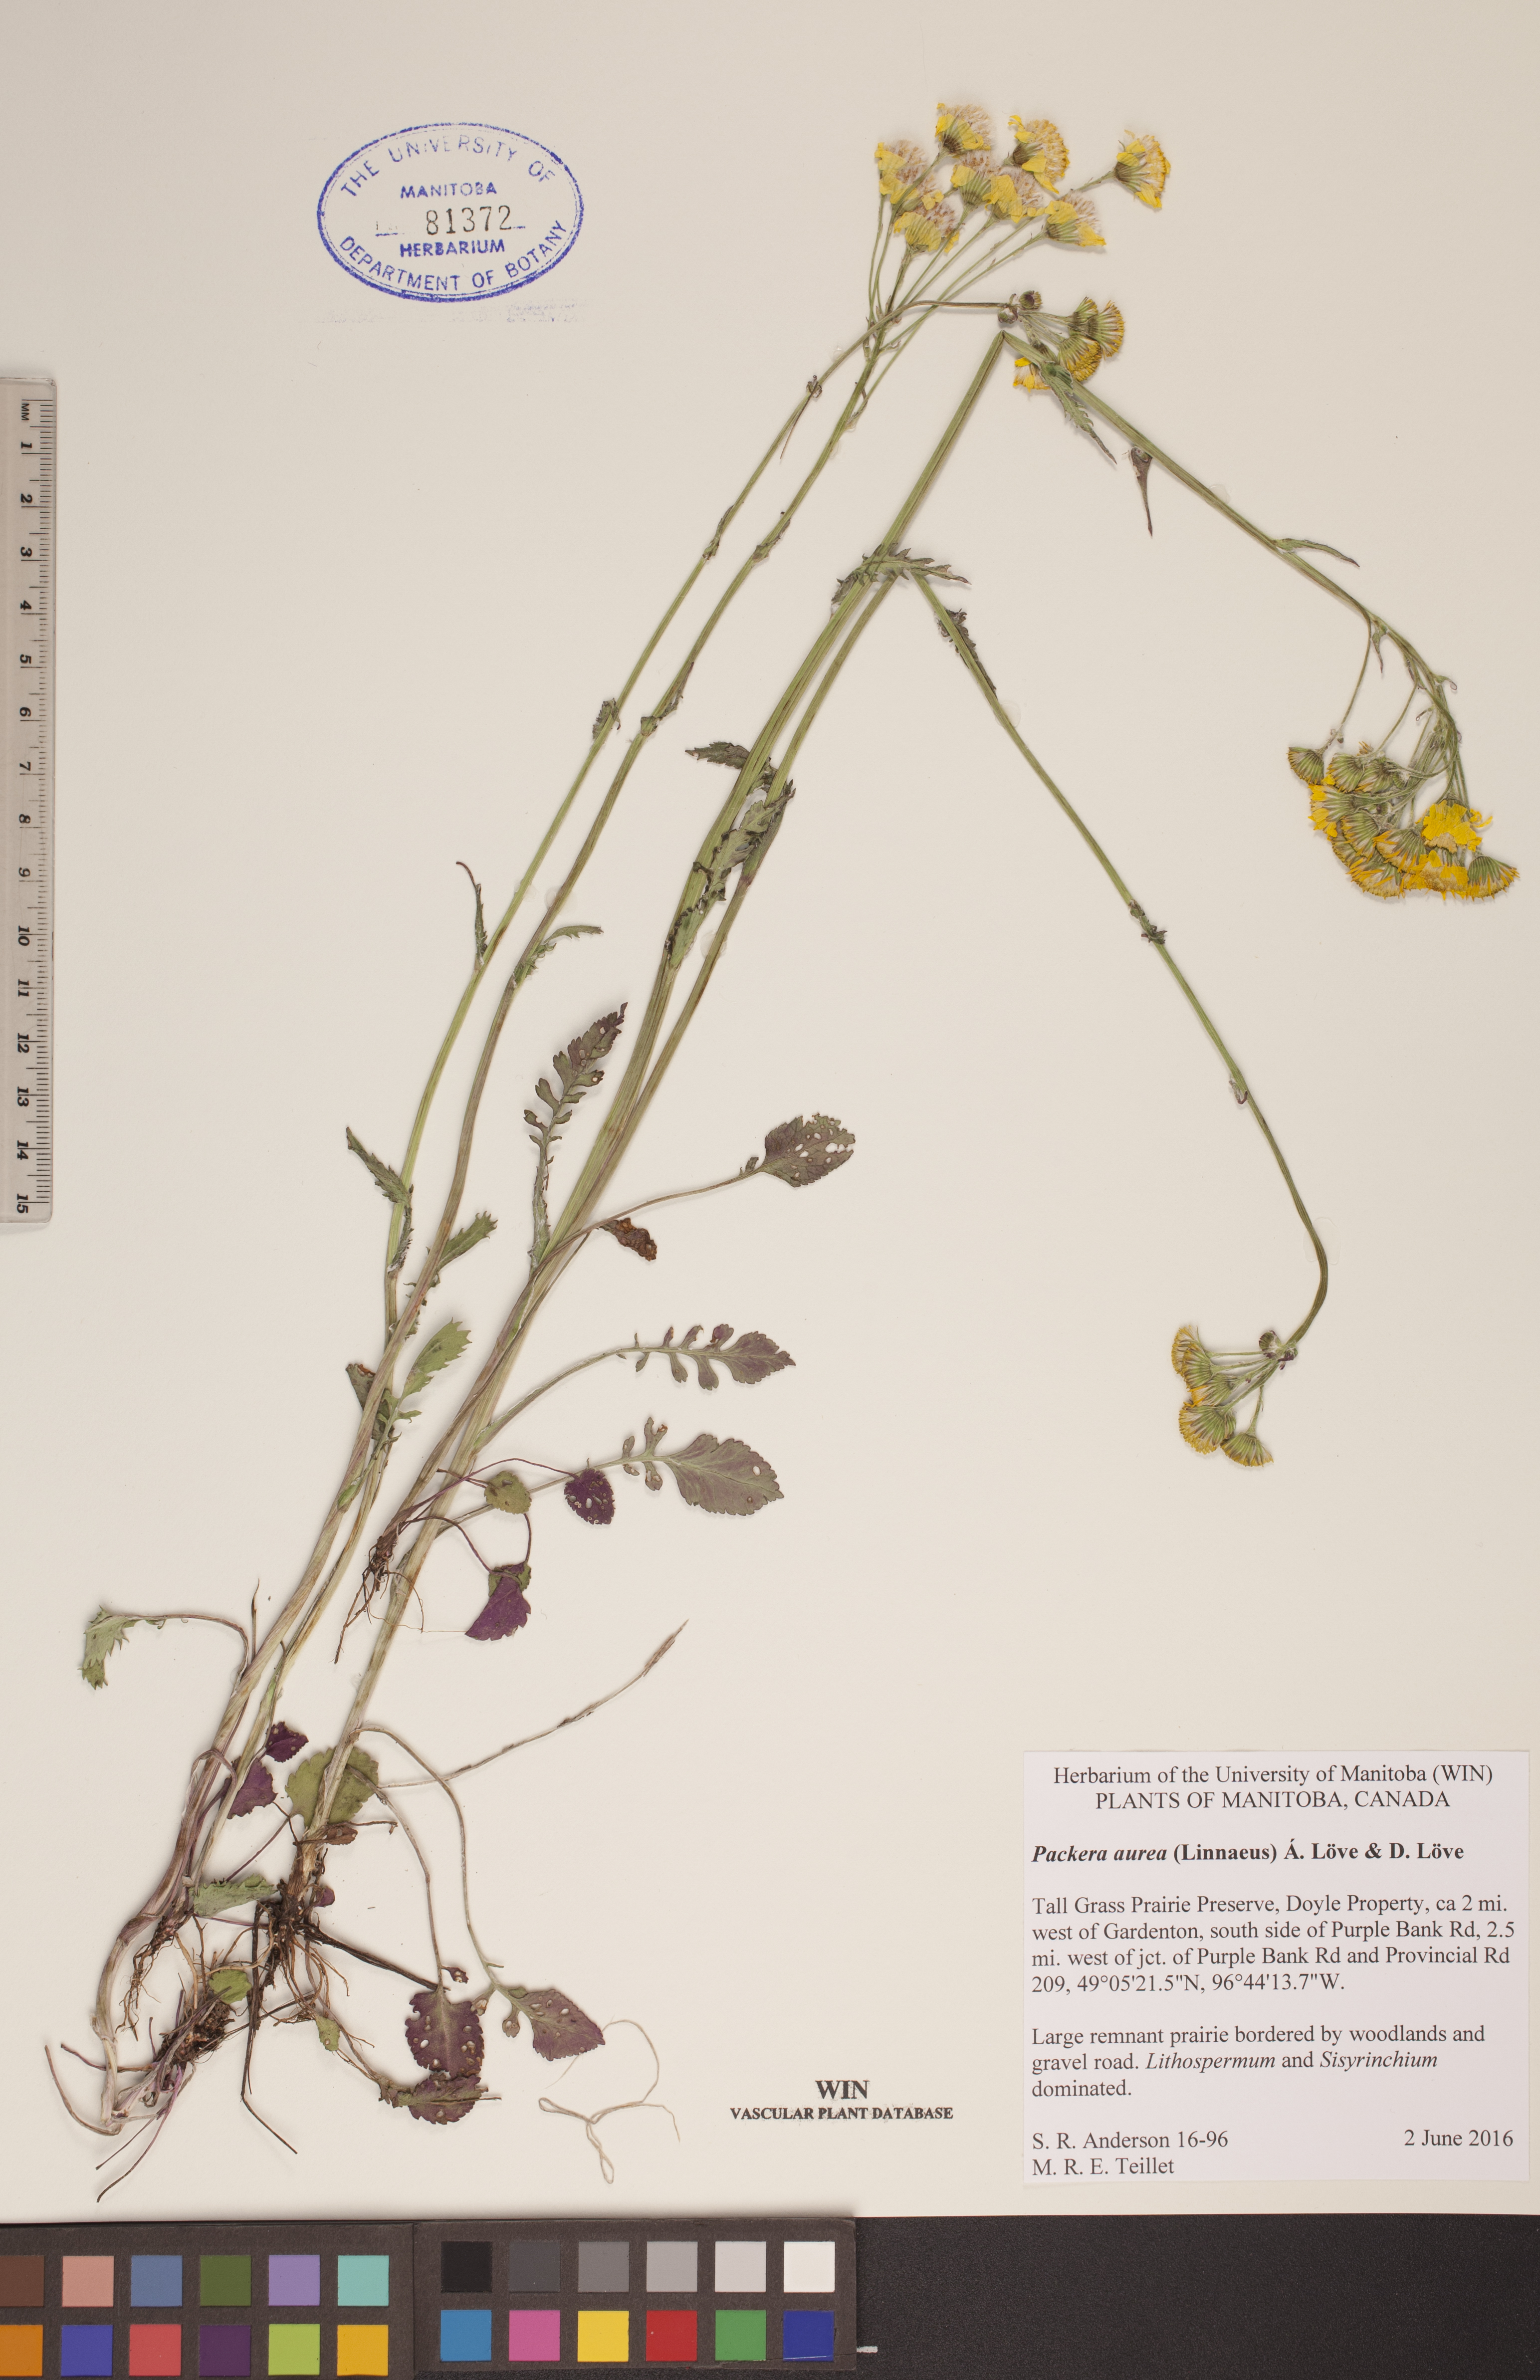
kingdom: Plantae
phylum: Tracheophyta
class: Magnoliopsida
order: Asterales
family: Asteraceae
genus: Packera
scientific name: Packera aurea
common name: Golden groundsel
